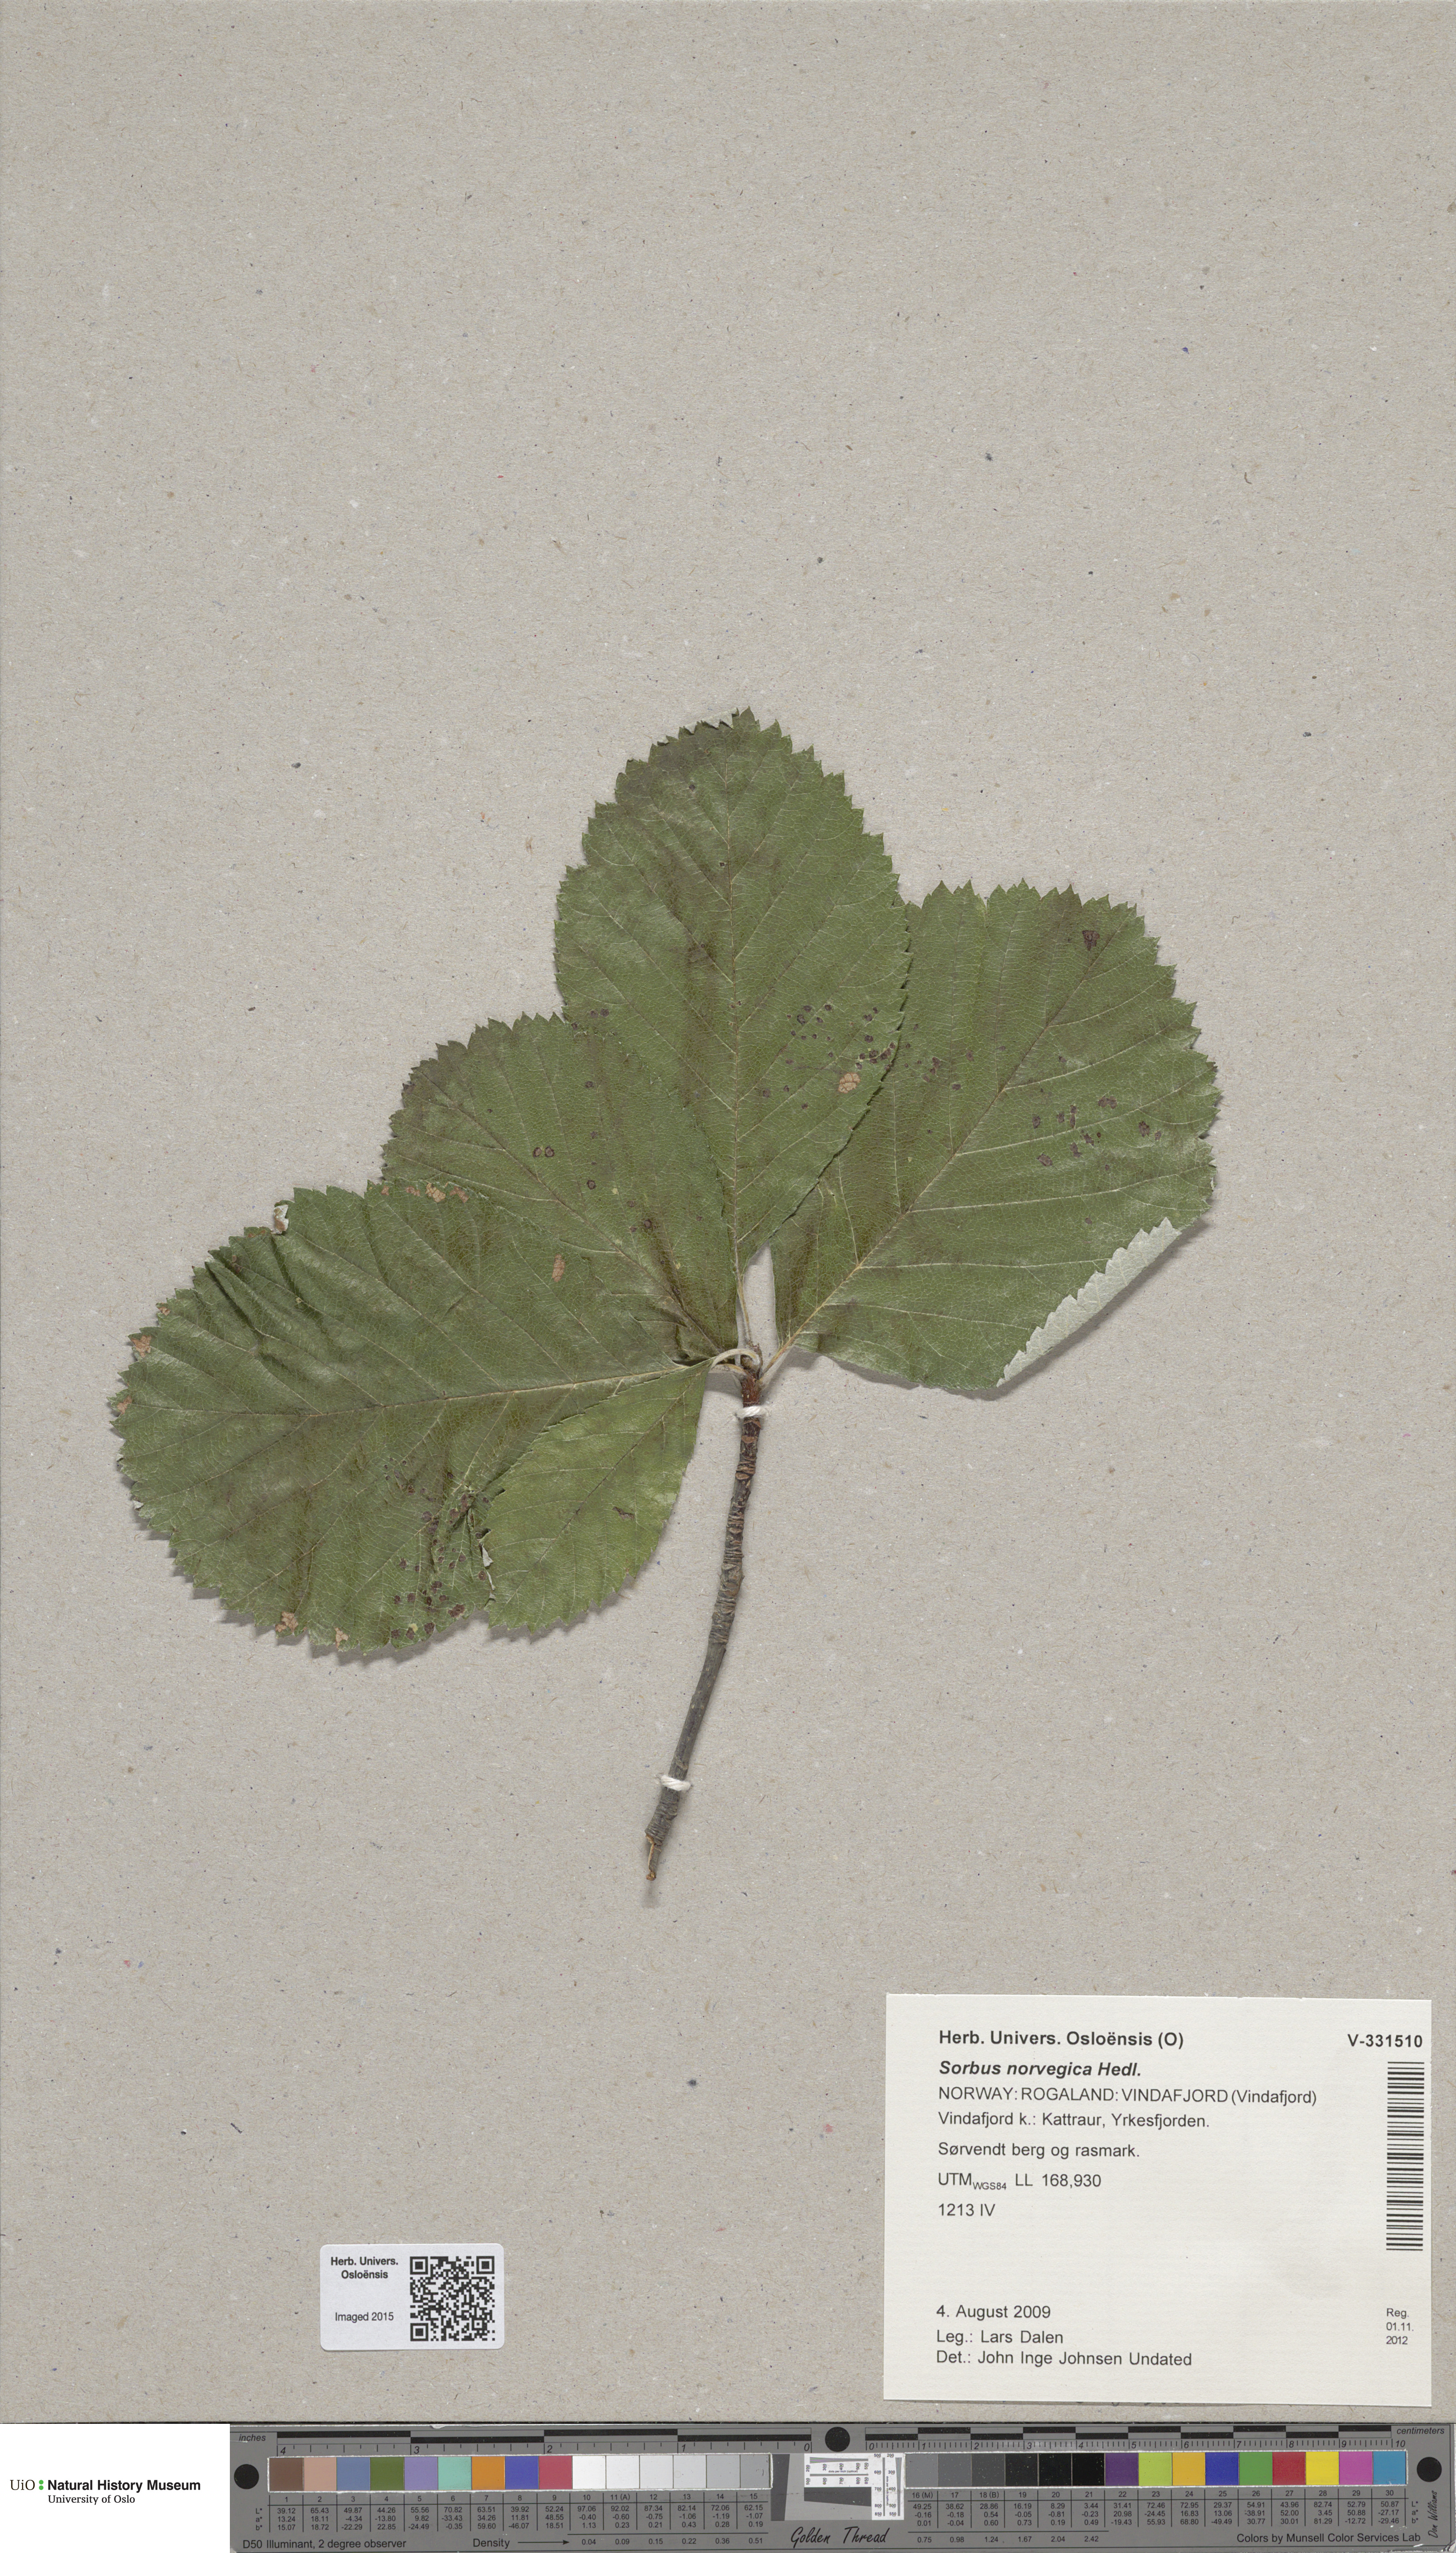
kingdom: Plantae
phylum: Tracheophyta
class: Magnoliopsida
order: Rosales
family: Rosaceae
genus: Aria
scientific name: Aria obtusifolia
